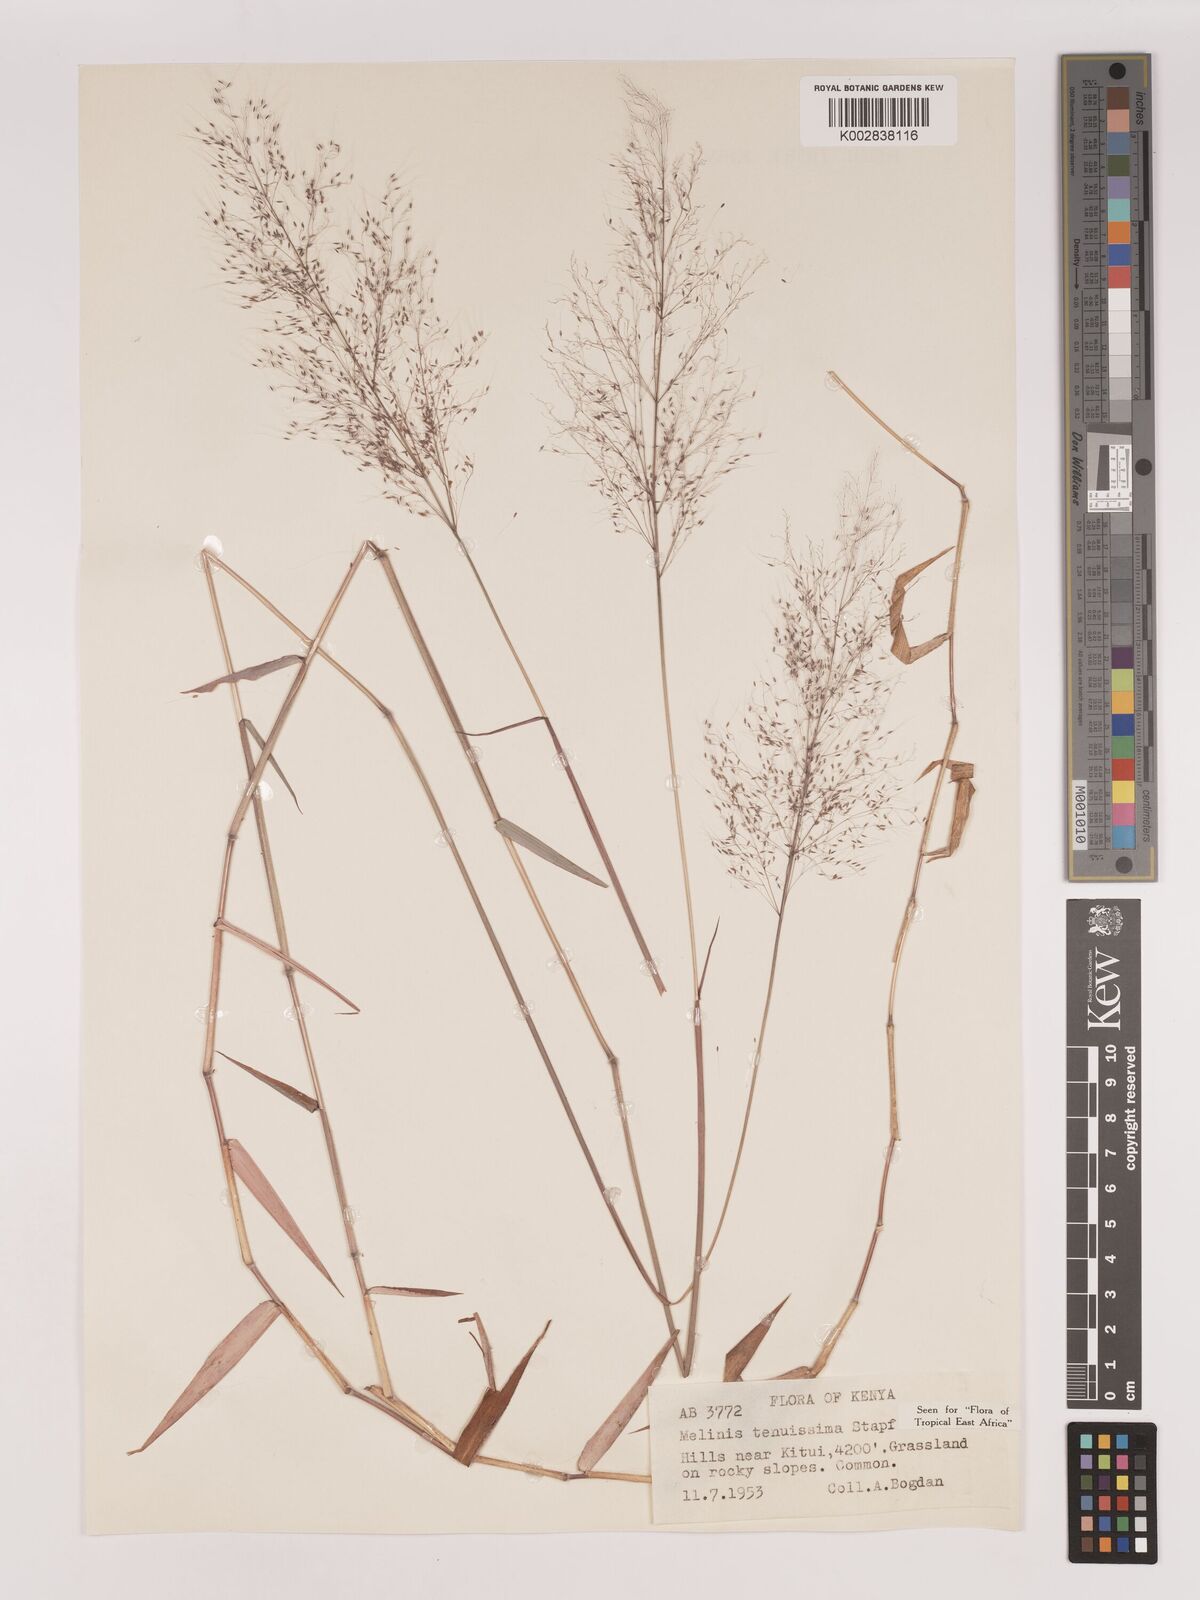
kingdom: Plantae
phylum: Tracheophyta
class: Liliopsida
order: Poales
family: Poaceae
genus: Melinis
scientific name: Melinis tenuissima
